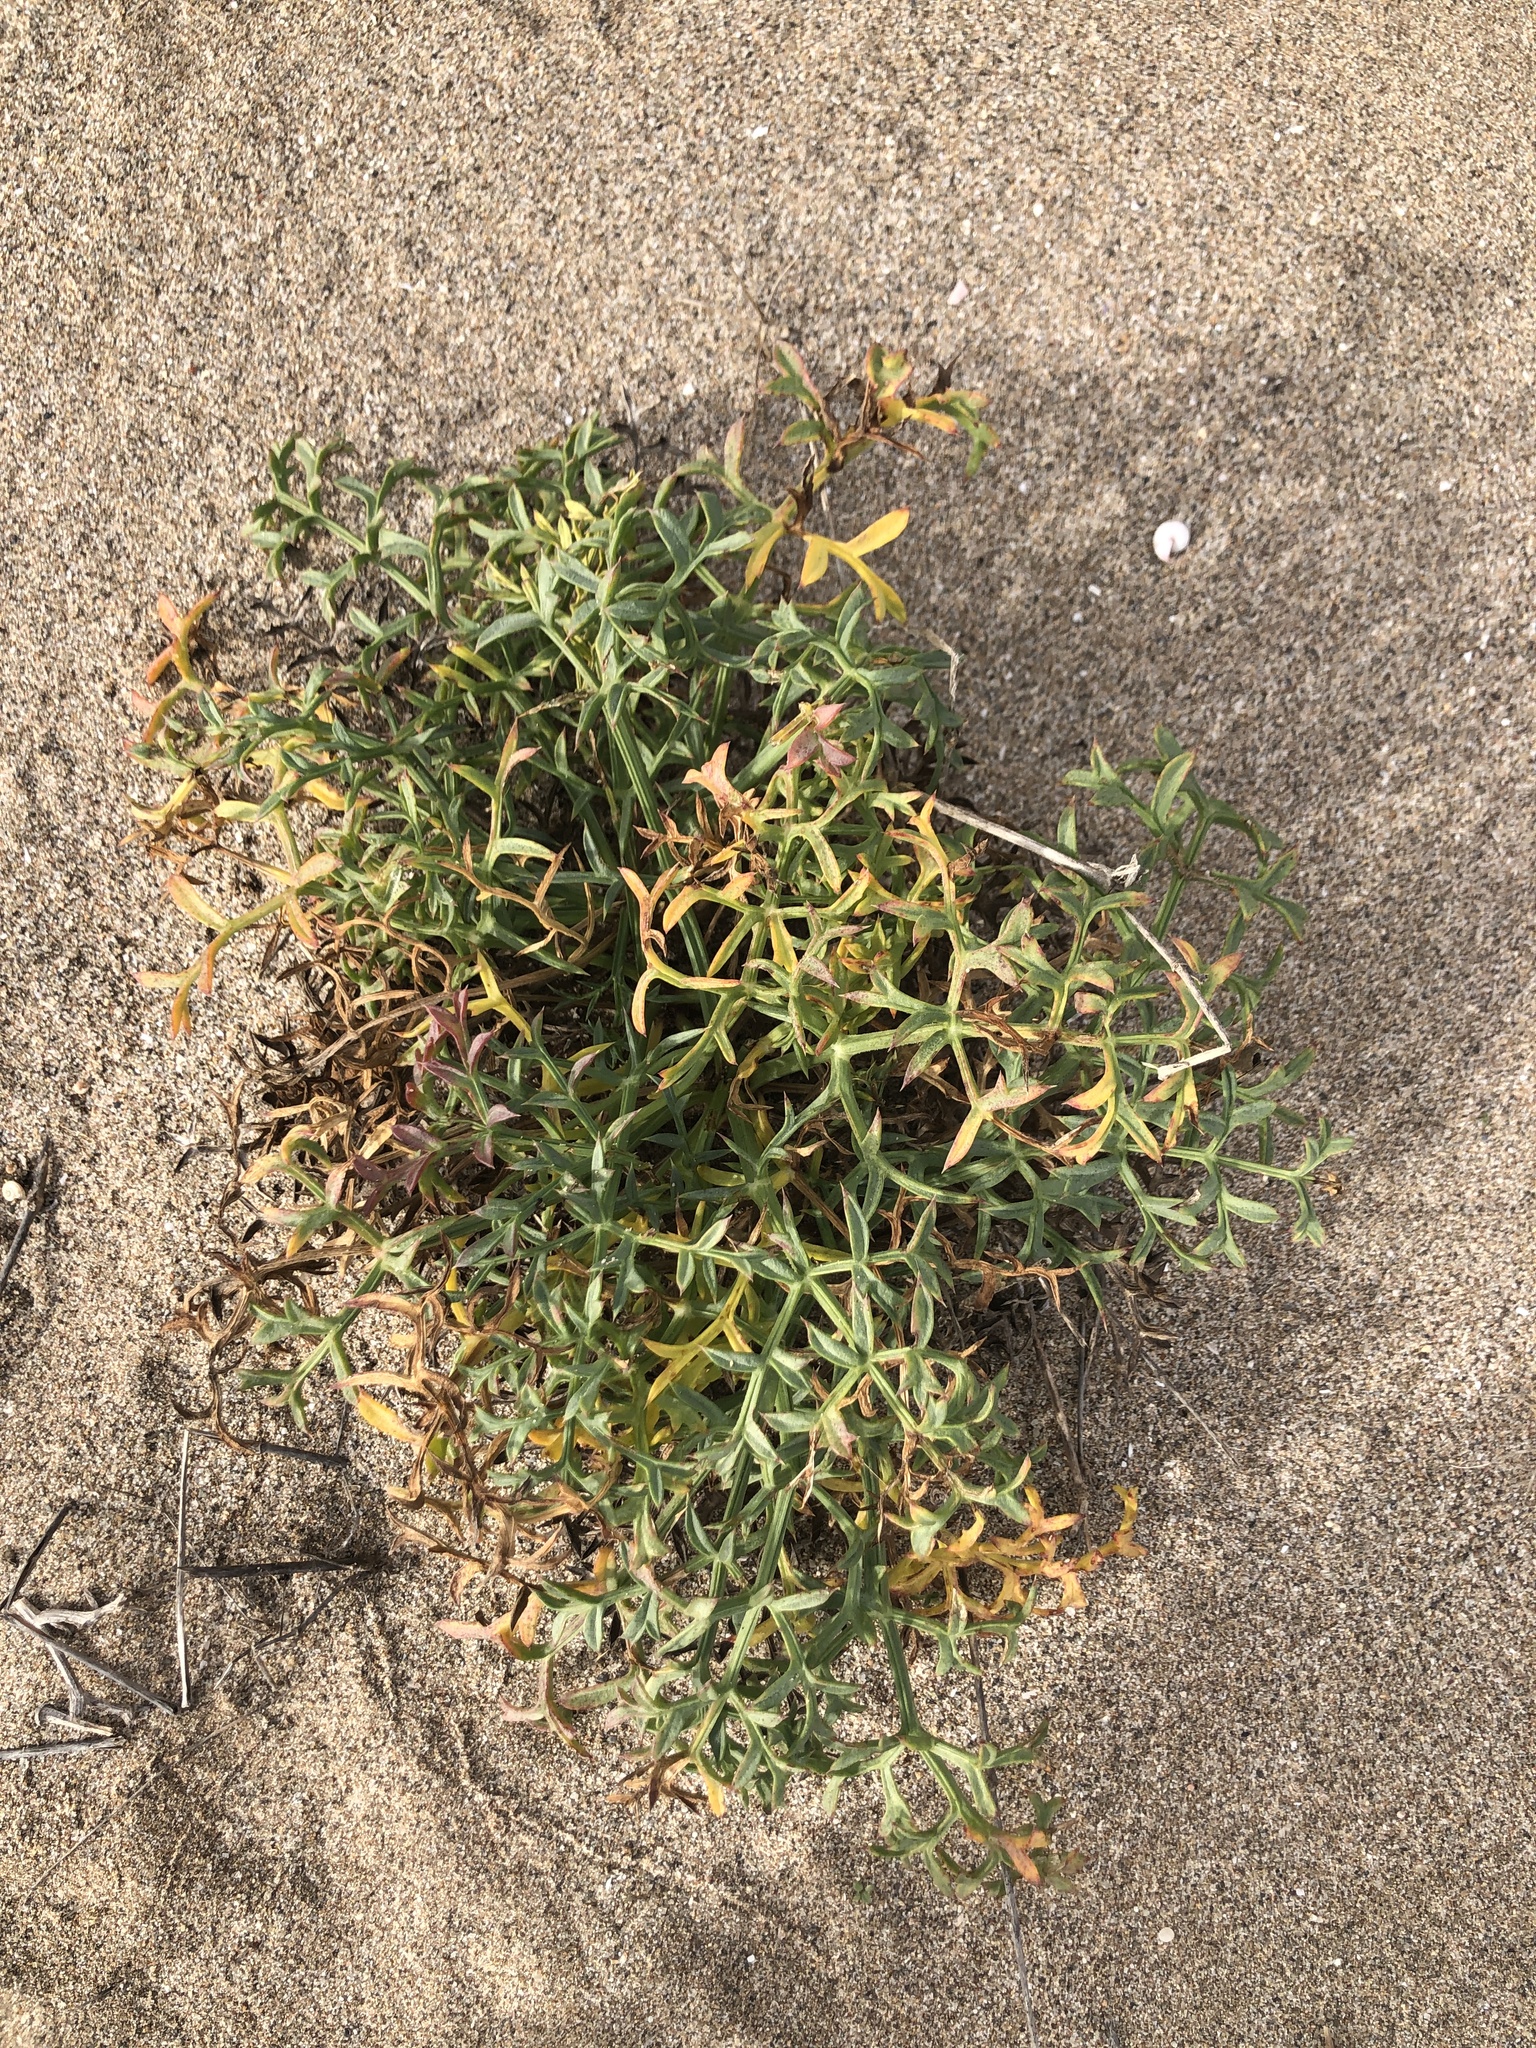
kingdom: Plantae
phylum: Tracheophyta
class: Magnoliopsida
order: Apiales
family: Apiaceae
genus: Echinophora
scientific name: Echinophora spinosa
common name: Prickly samphire
